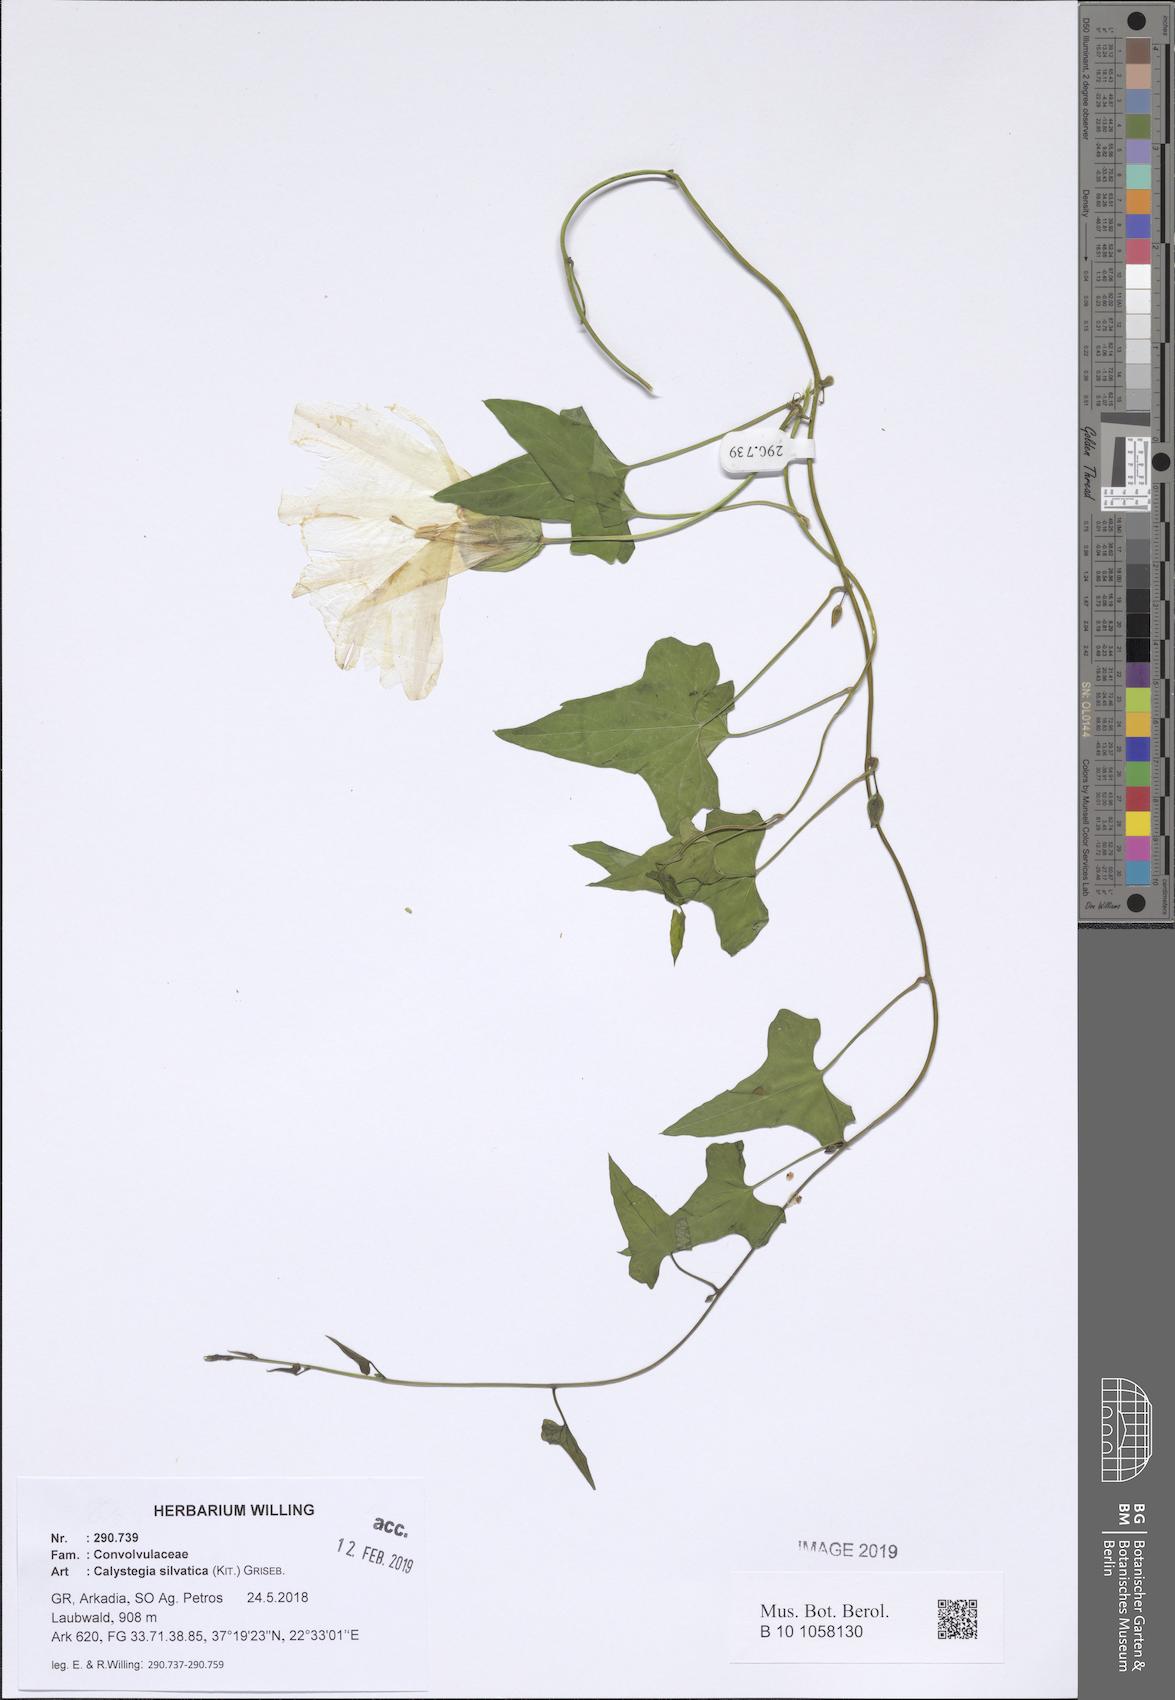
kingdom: Plantae
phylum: Tracheophyta
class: Magnoliopsida
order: Solanales
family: Convolvulaceae
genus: Calystegia
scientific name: Calystegia silvatica
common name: Large bindweed
